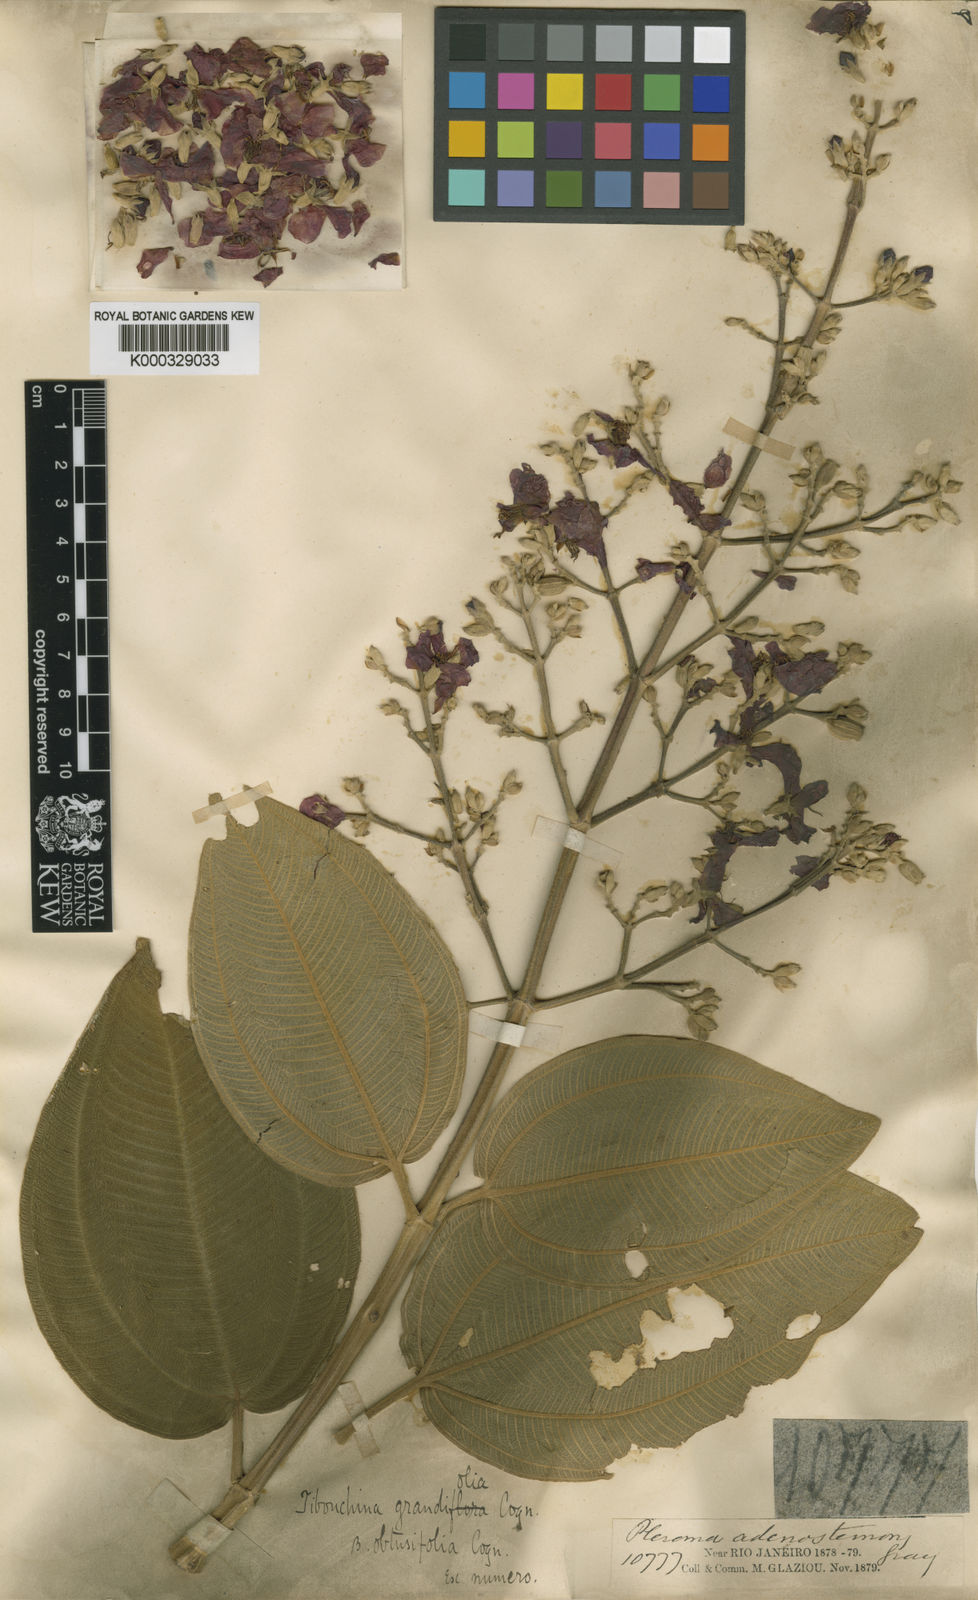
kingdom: Plantae
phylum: Tracheophyta
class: Magnoliopsida
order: Myrtales
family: Melastomataceae
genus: Pleroma
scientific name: Pleroma heteromallum
